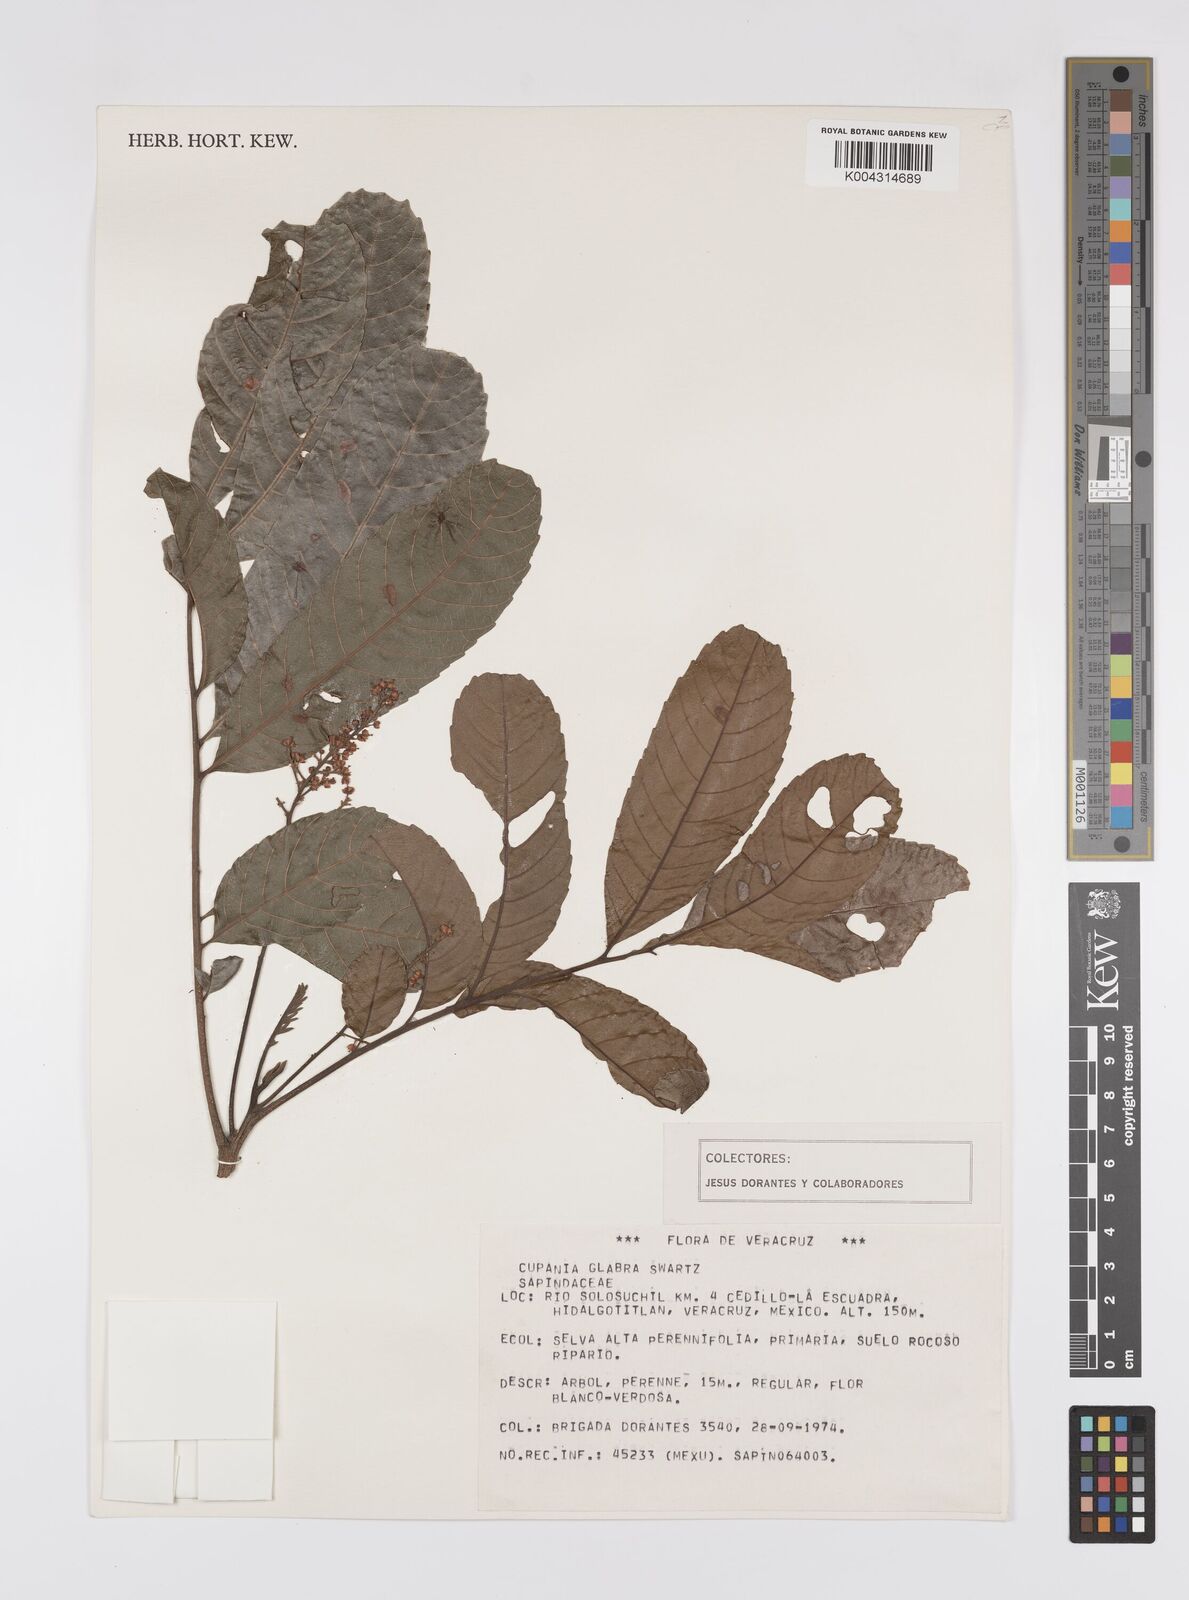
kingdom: Plantae
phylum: Tracheophyta
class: Magnoliopsida
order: Sapindales
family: Sapindaceae
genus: Cupania
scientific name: Cupania
